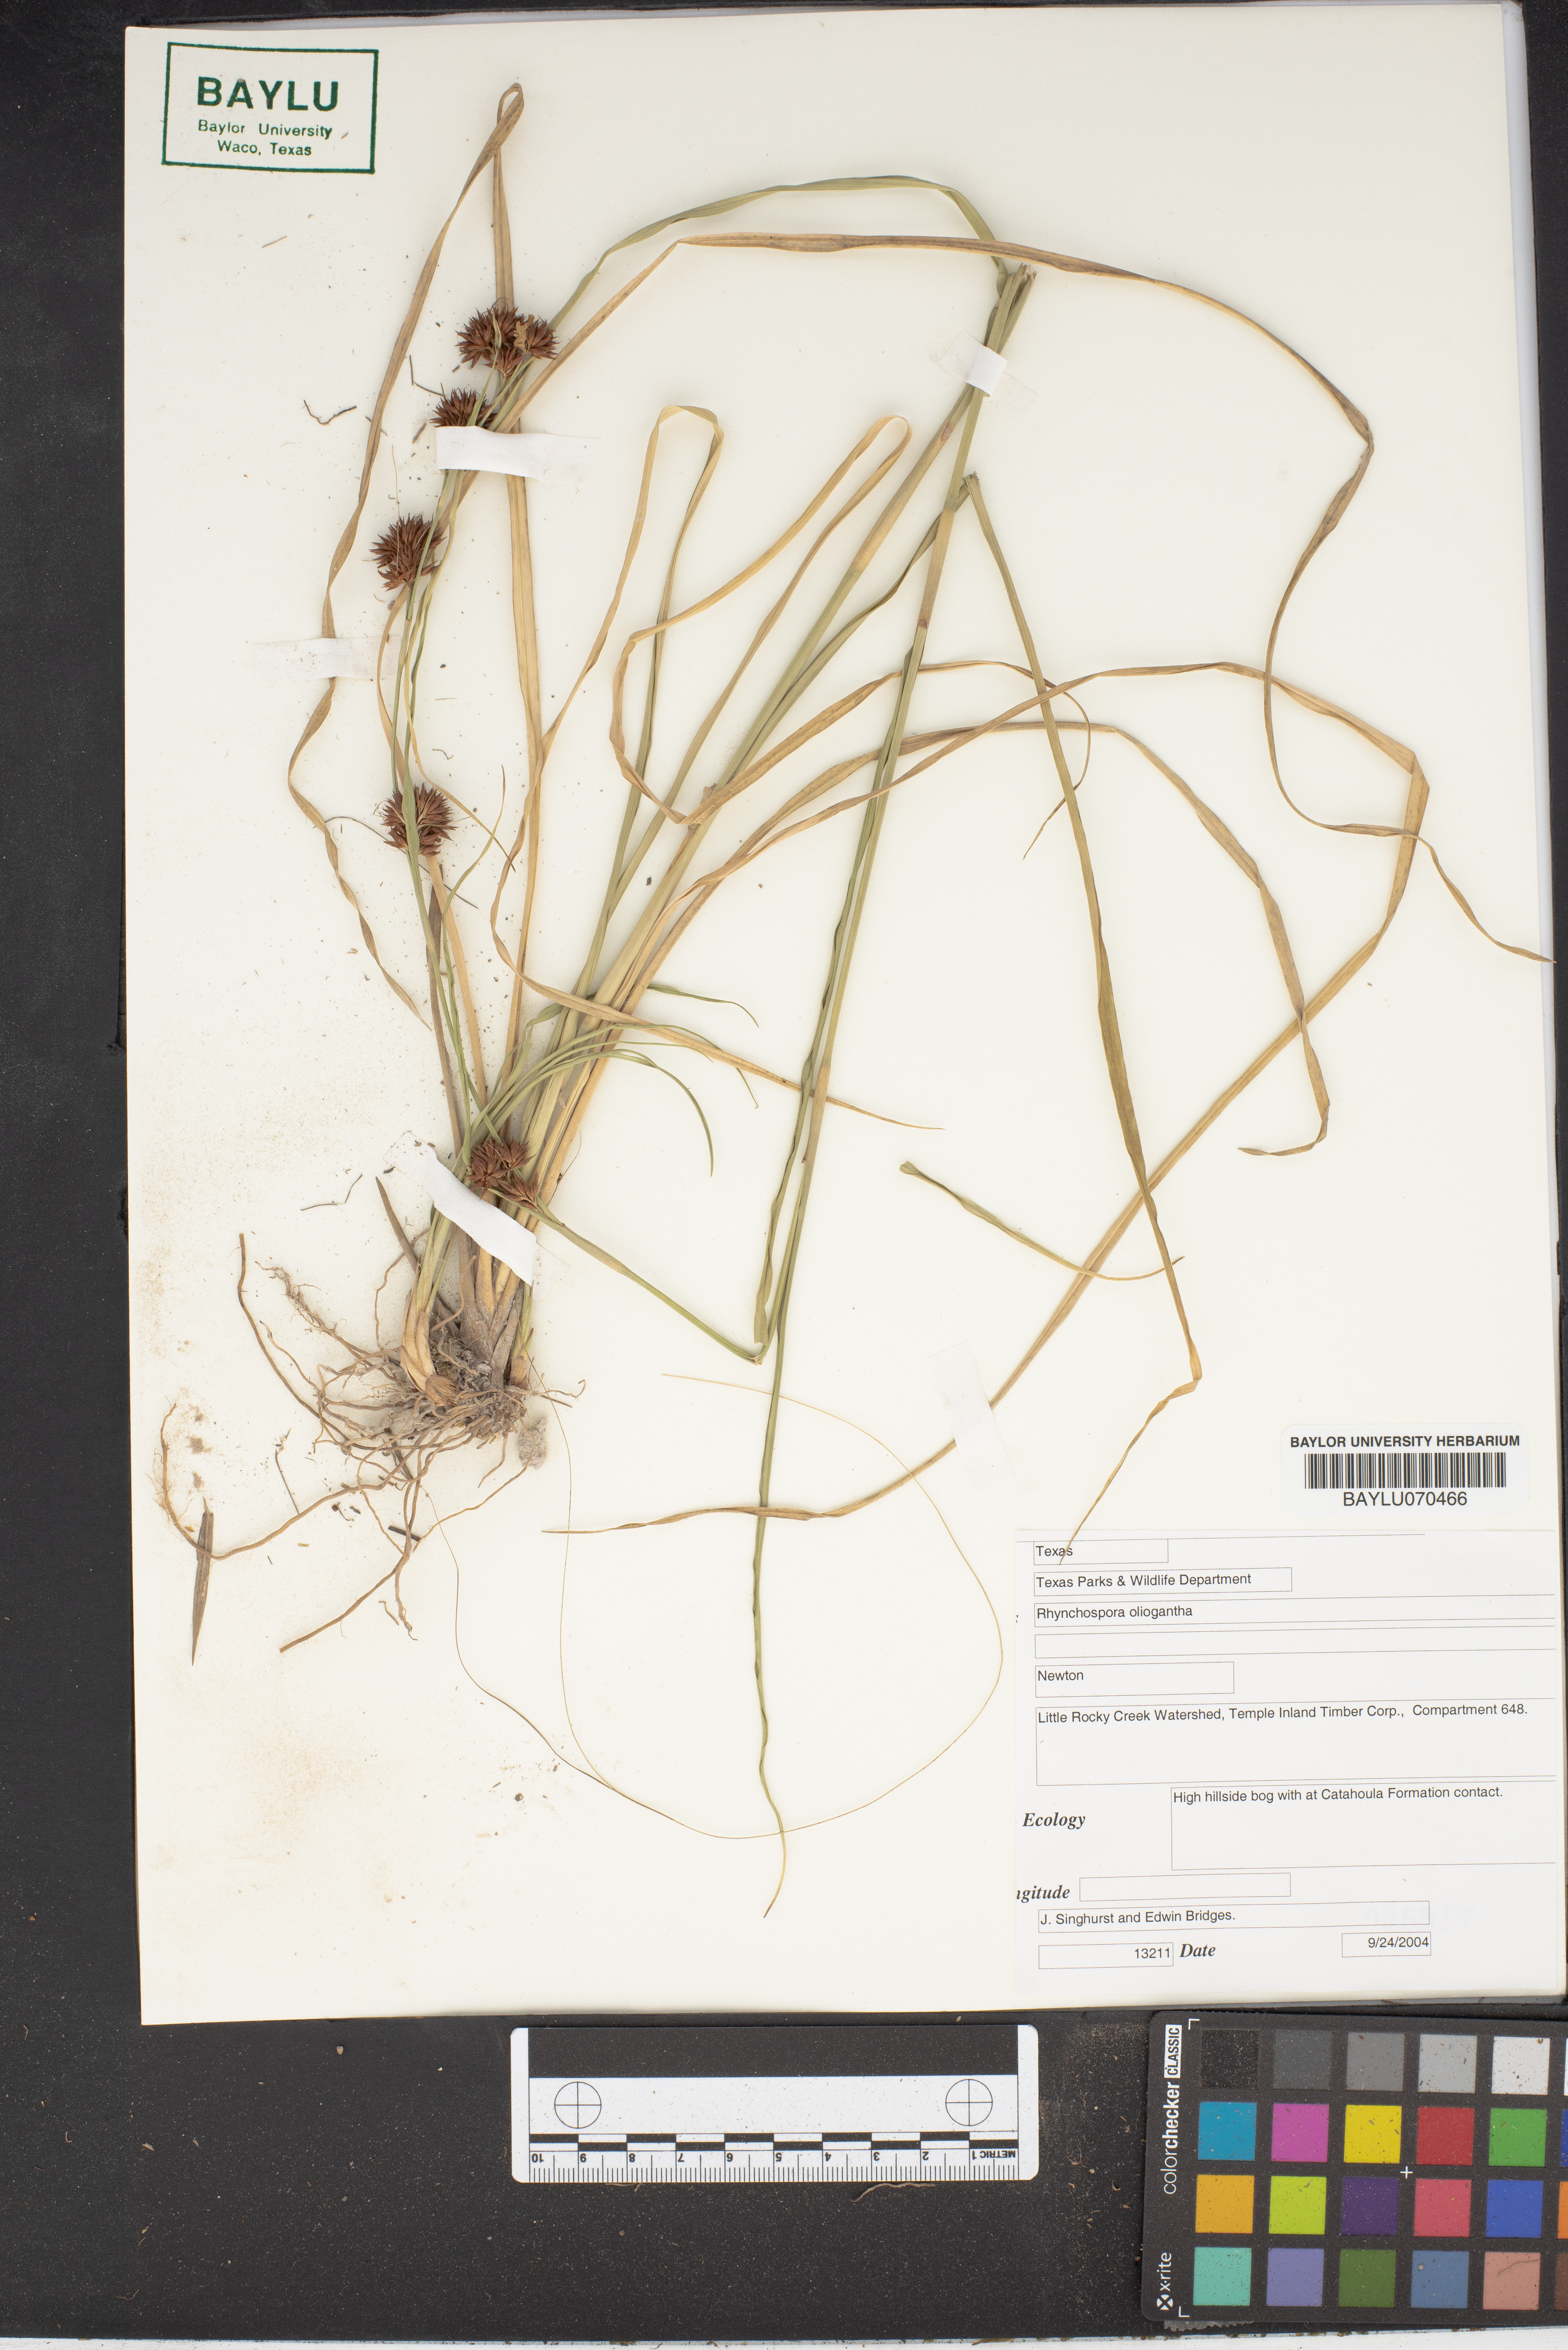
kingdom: Plantae
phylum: Tracheophyta
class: Liliopsida
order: Poales
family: Cyperaceae
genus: Rhynchospora
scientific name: Rhynchospora oligantha
